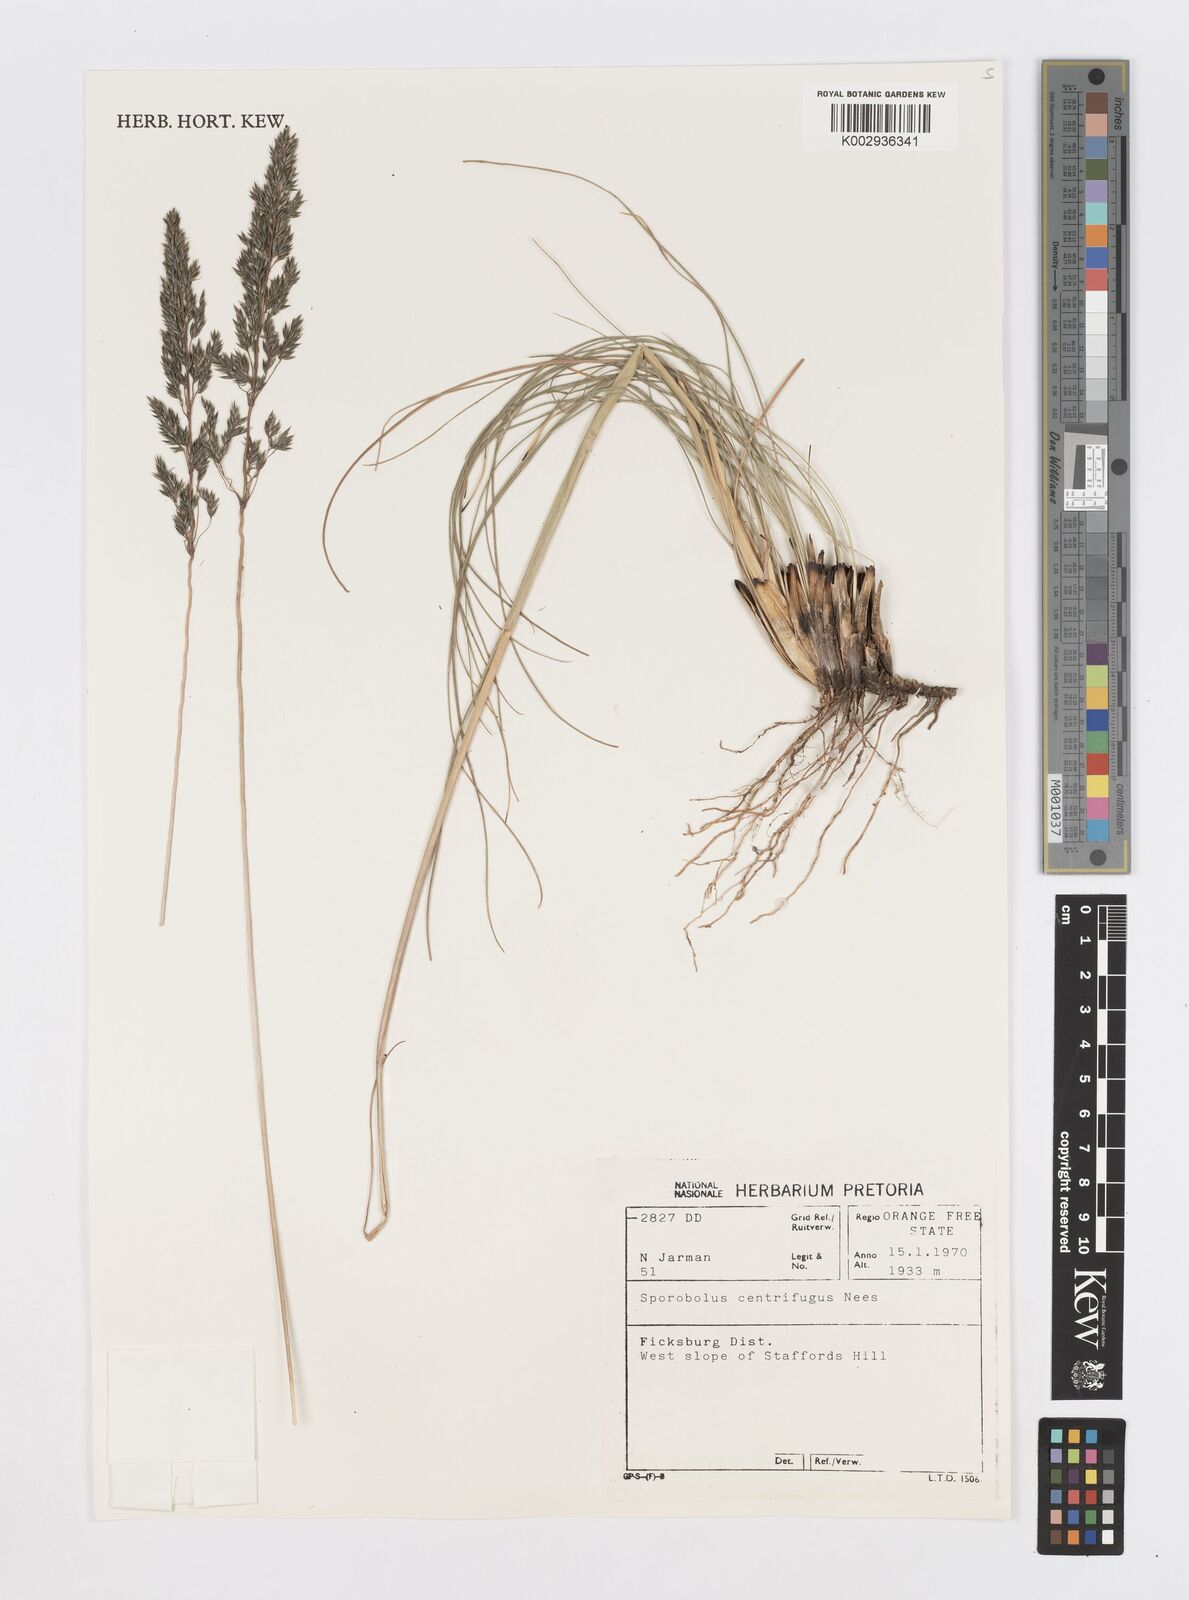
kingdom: Plantae
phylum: Tracheophyta
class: Liliopsida
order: Poales
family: Poaceae
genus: Sporobolus
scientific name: Sporobolus centrifugus
